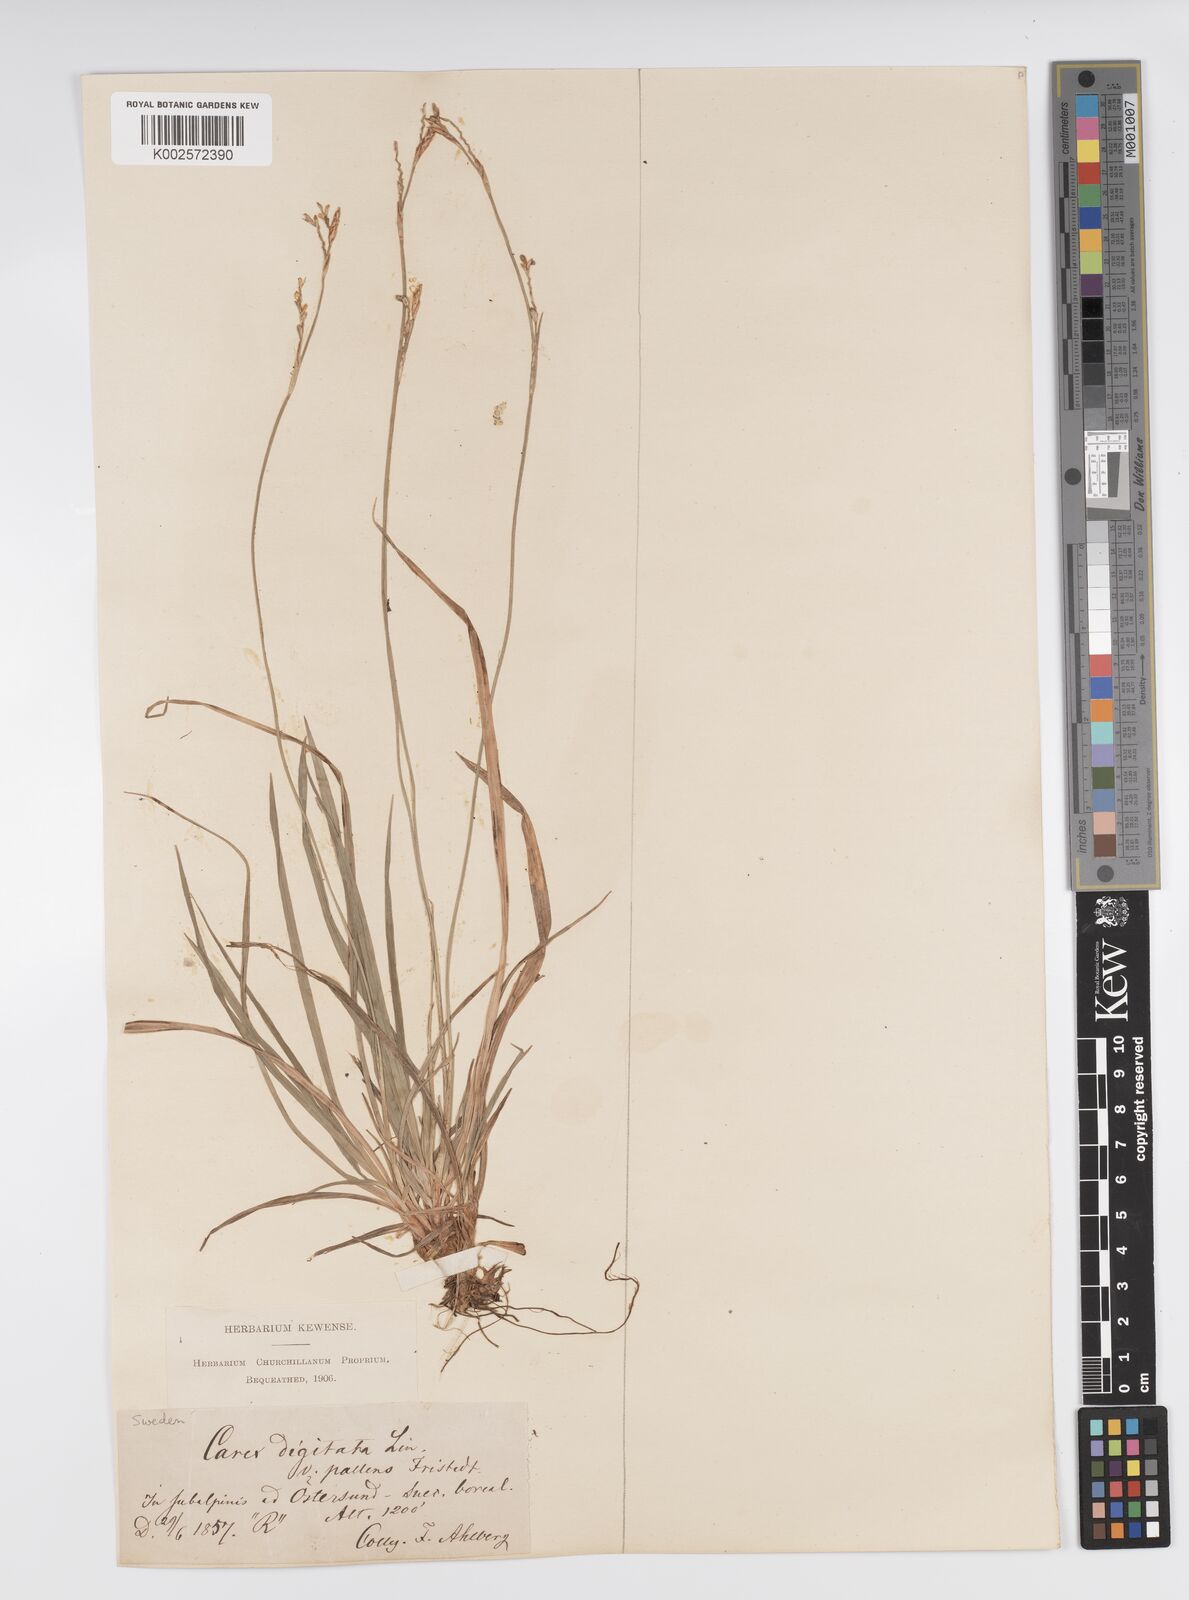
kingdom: Plantae
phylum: Tracheophyta
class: Liliopsida
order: Poales
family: Cyperaceae
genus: Carex
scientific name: Carex digitata
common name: Fingered sedge
